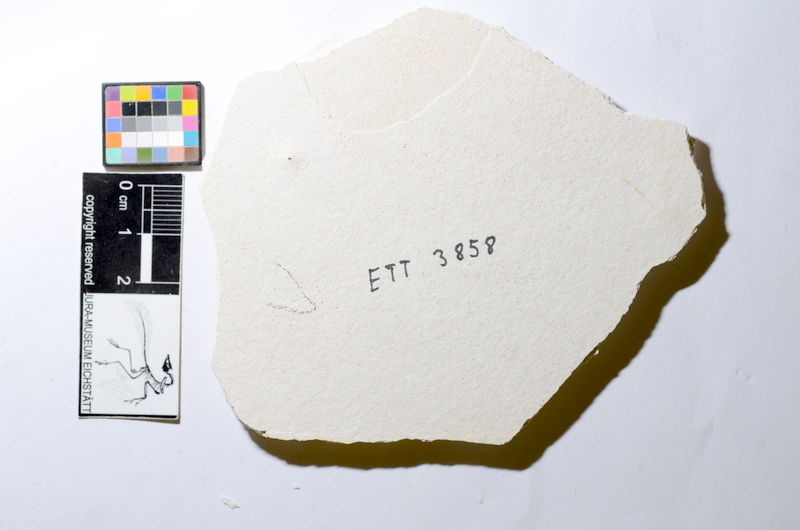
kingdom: Animalia
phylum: Chordata
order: Salmoniformes
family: Orthogonikleithridae
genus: Orthogonikleithrus
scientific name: Orthogonikleithrus hoelli
